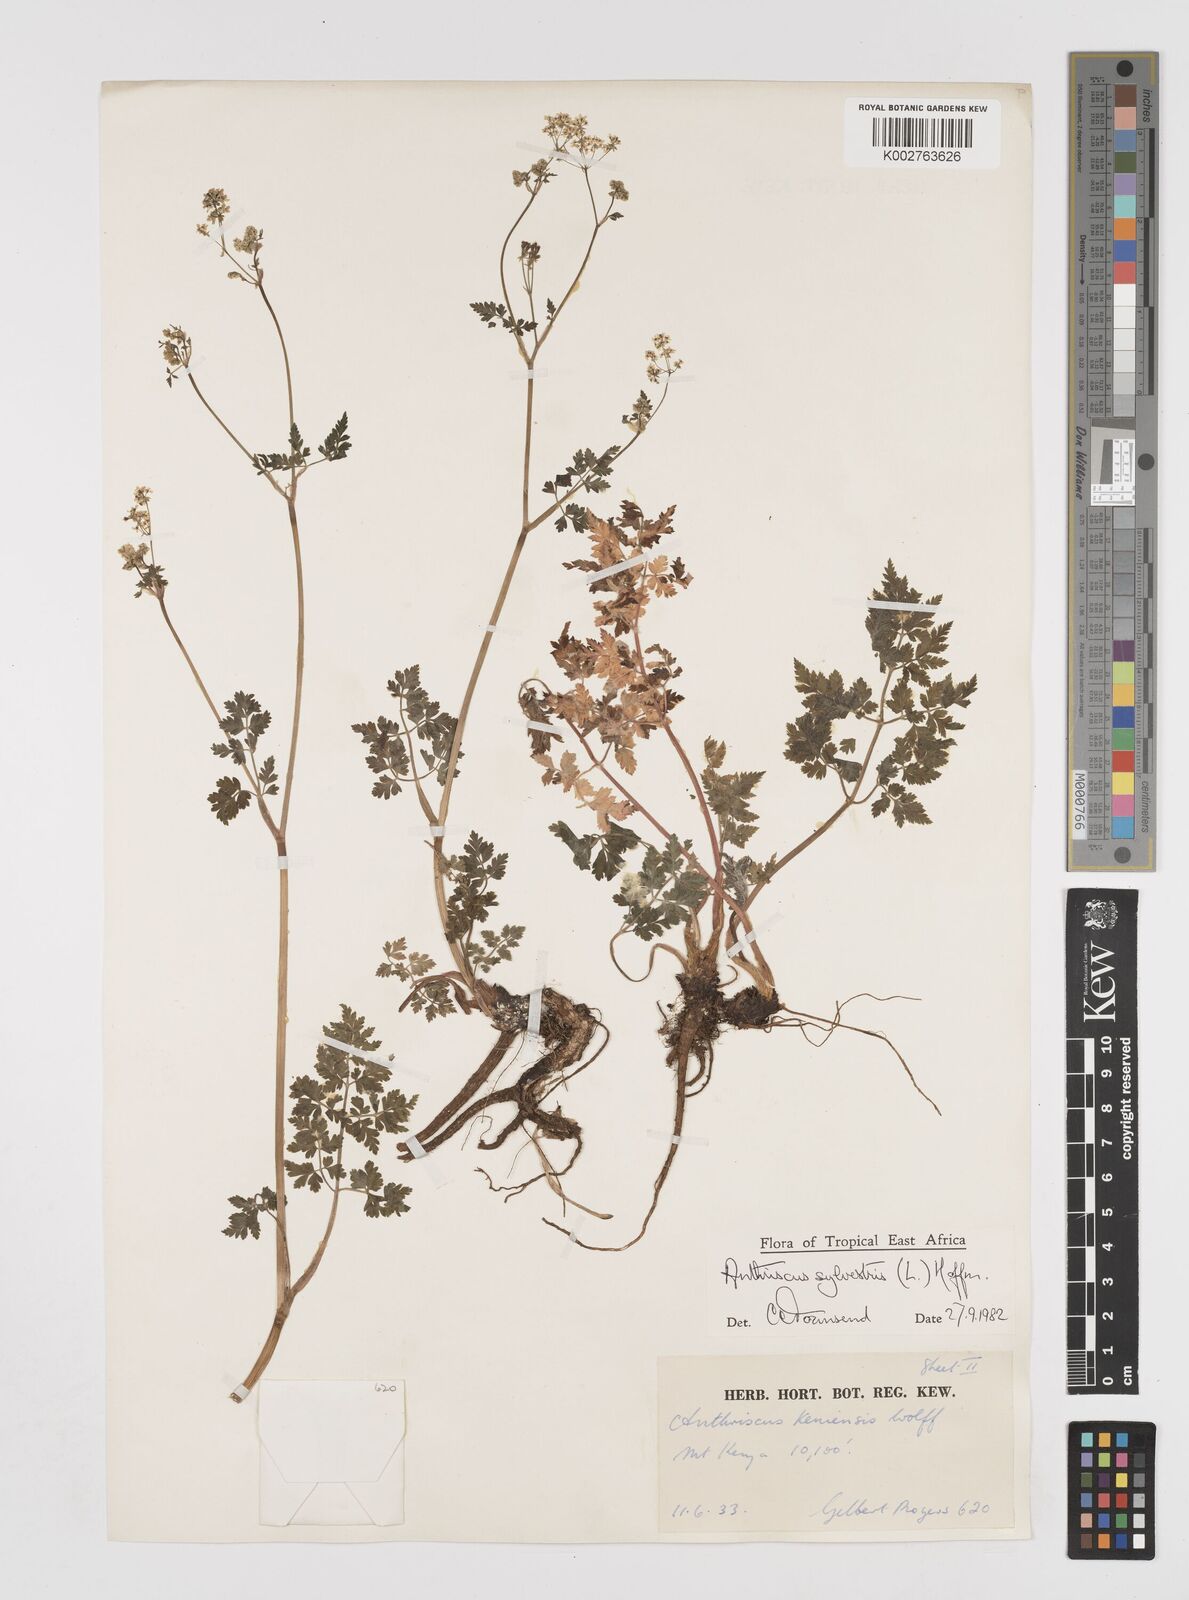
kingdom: Plantae
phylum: Tracheophyta
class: Magnoliopsida
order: Apiales
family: Apiaceae
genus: Anthriscus
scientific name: Anthriscus sylvestris
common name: Cow parsley
